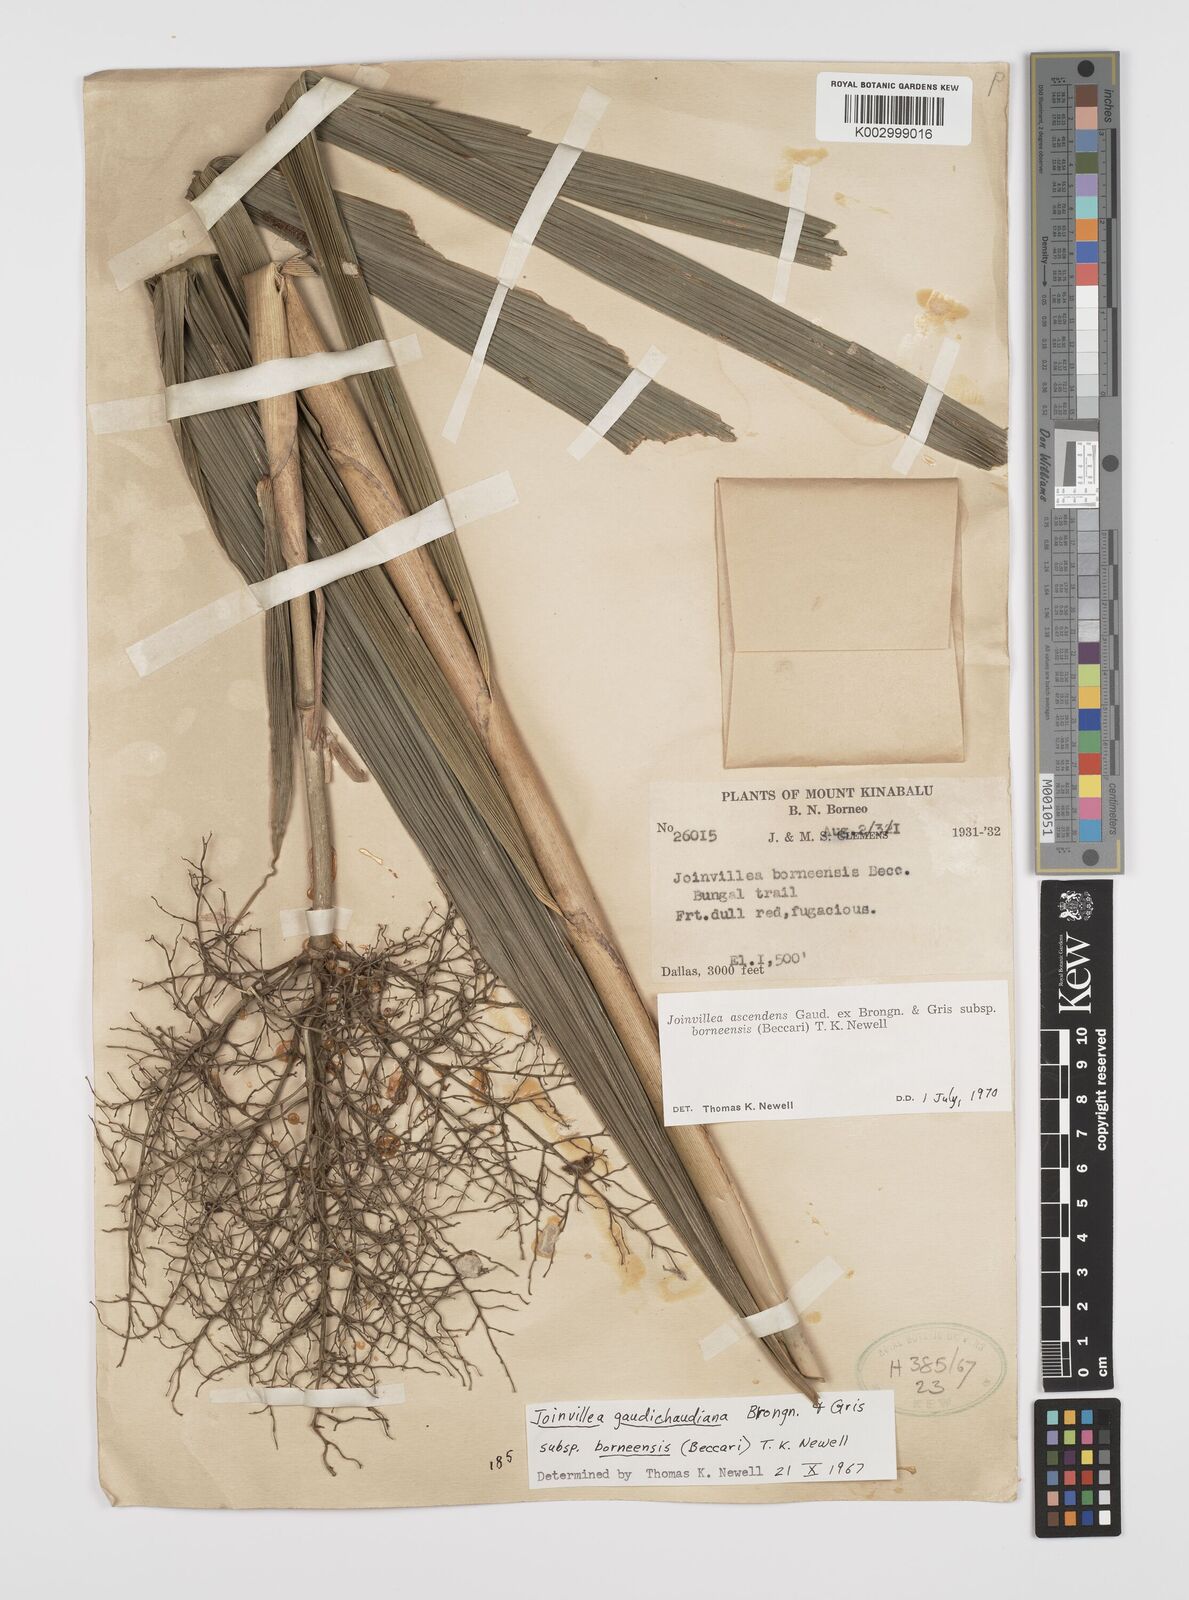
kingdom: Plantae
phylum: Tracheophyta
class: Liliopsida
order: Poales
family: Joinvilleaceae
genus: Joinvillea
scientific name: Joinvillea borneensis
